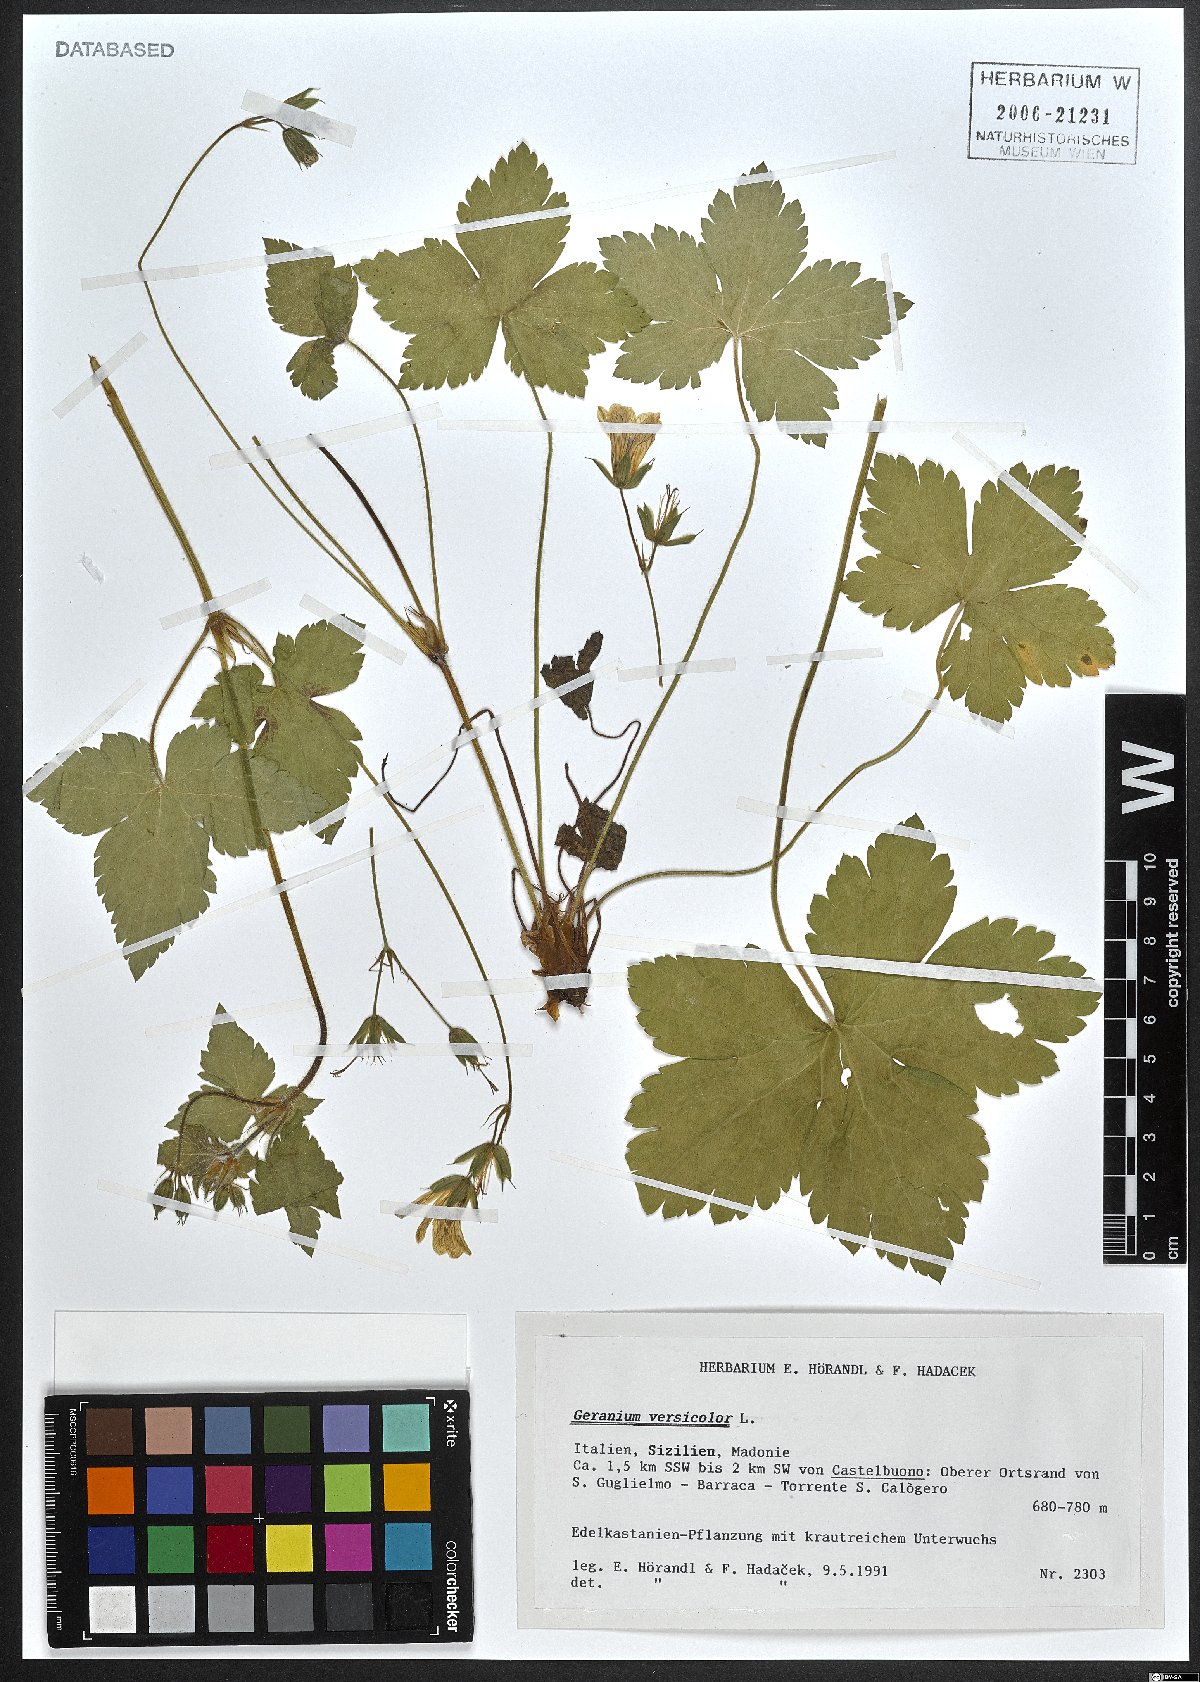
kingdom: Plantae
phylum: Tracheophyta
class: Magnoliopsida
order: Geraniales
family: Geraniaceae
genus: Geranium
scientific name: Geranium versicolor
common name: Pencilled crane's-bill
